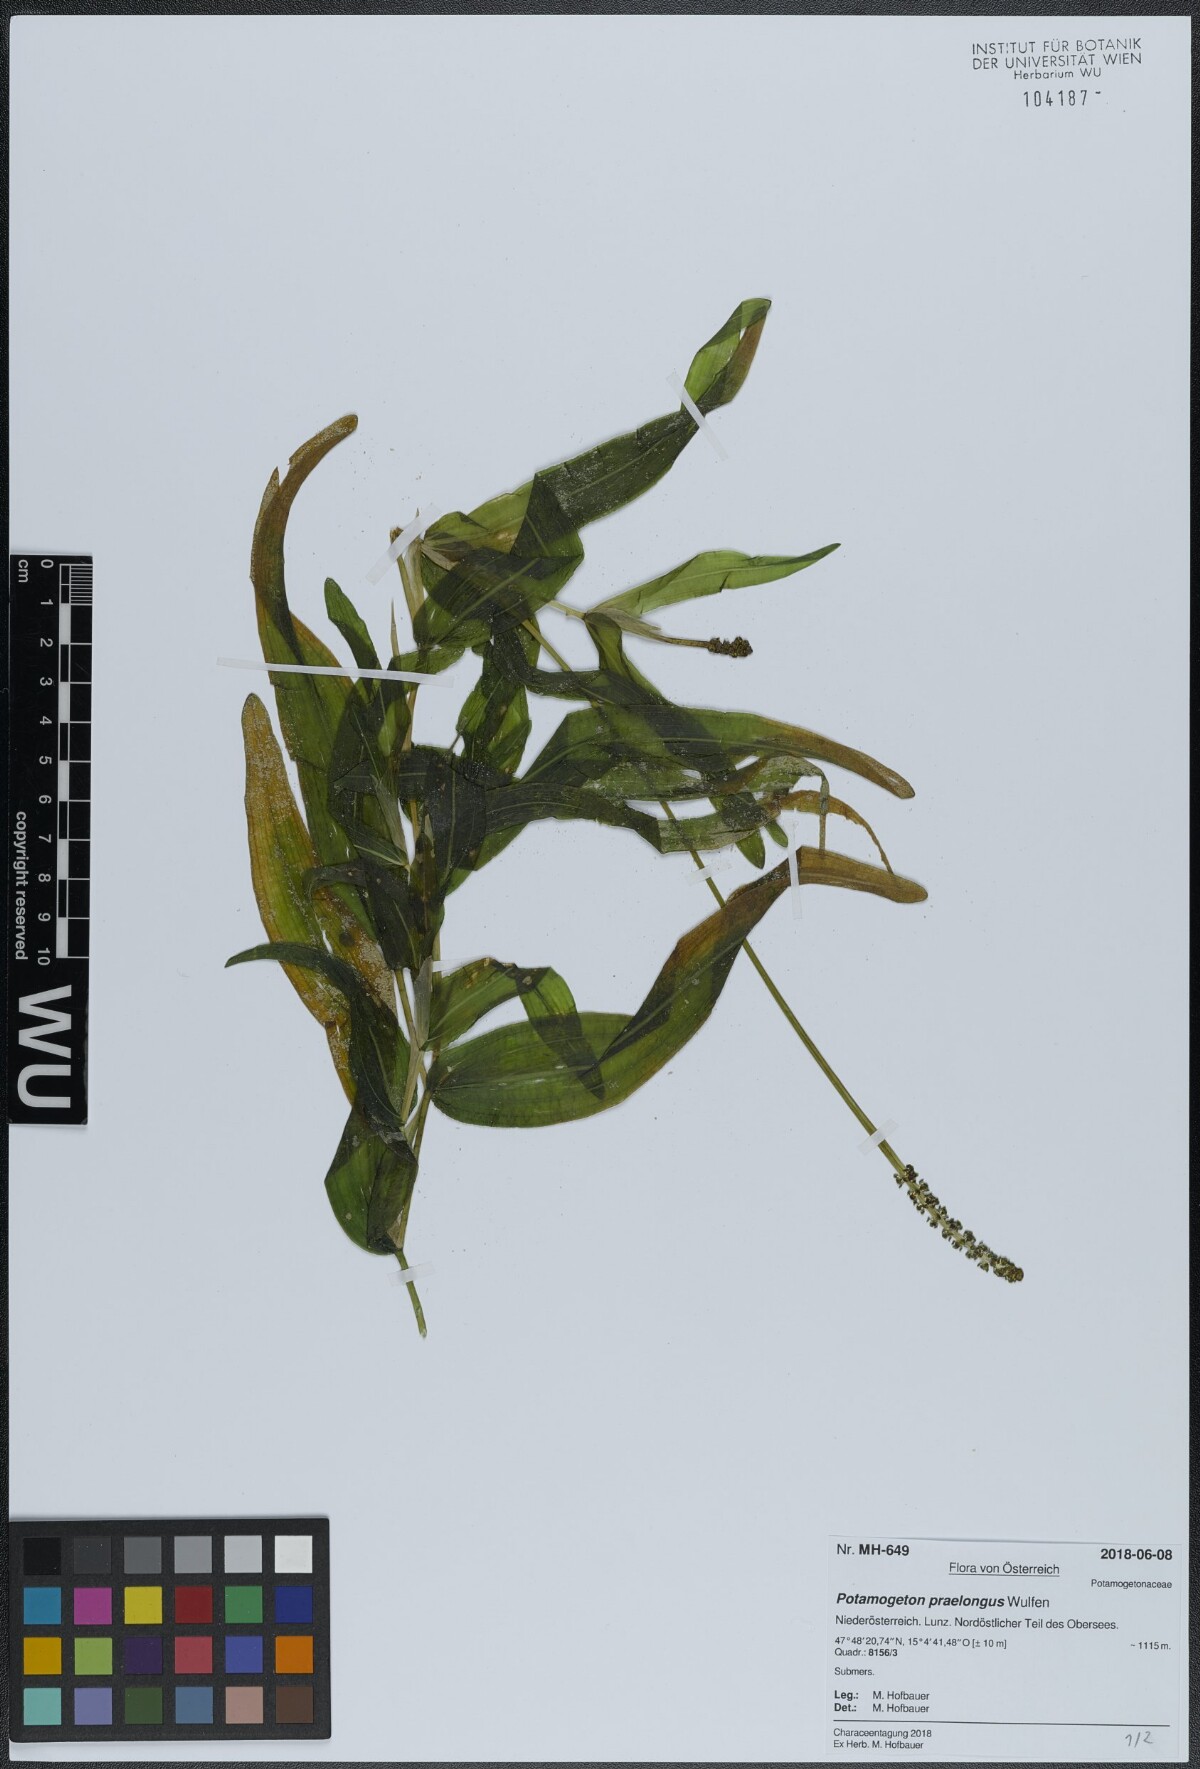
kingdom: Plantae
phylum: Tracheophyta
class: Liliopsida
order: Alismatales
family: Potamogetonaceae
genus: Potamogeton
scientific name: Potamogeton praelongus
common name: Long-stalked pondweed
